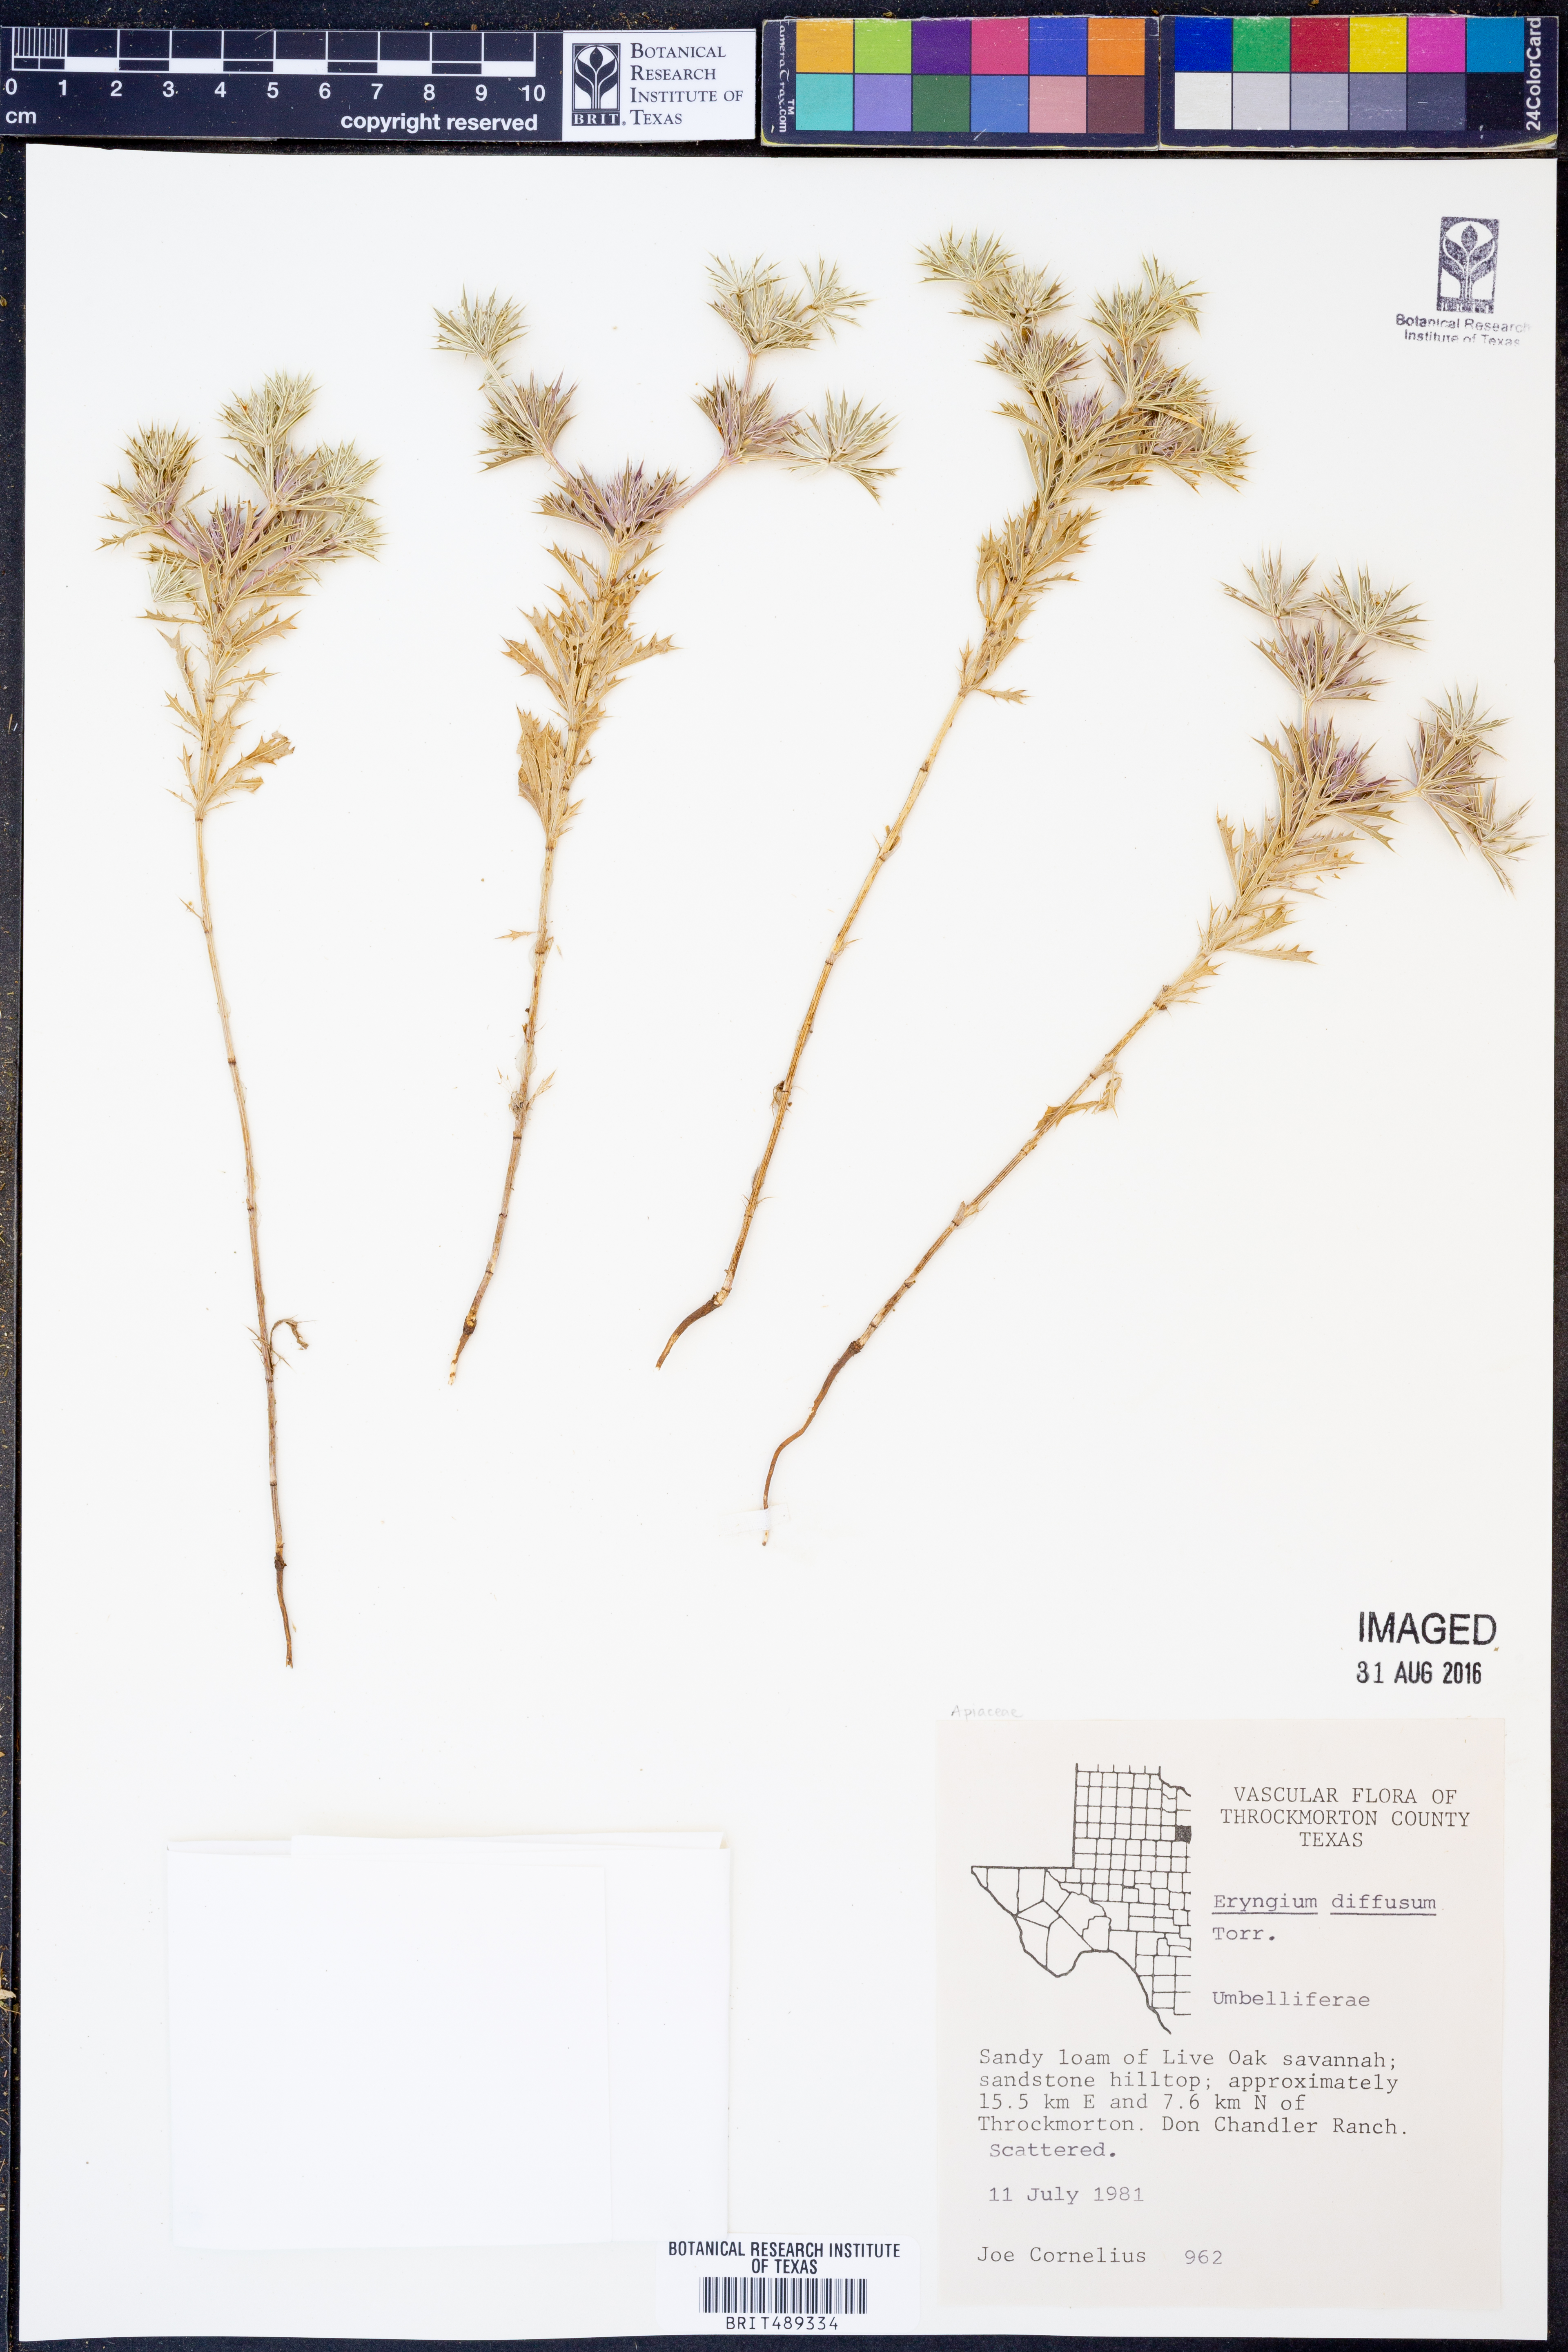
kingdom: Plantae
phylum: Tracheophyta
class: Magnoliopsida
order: Apiales
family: Apiaceae
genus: Eryngium
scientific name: Eryngium diffusum
